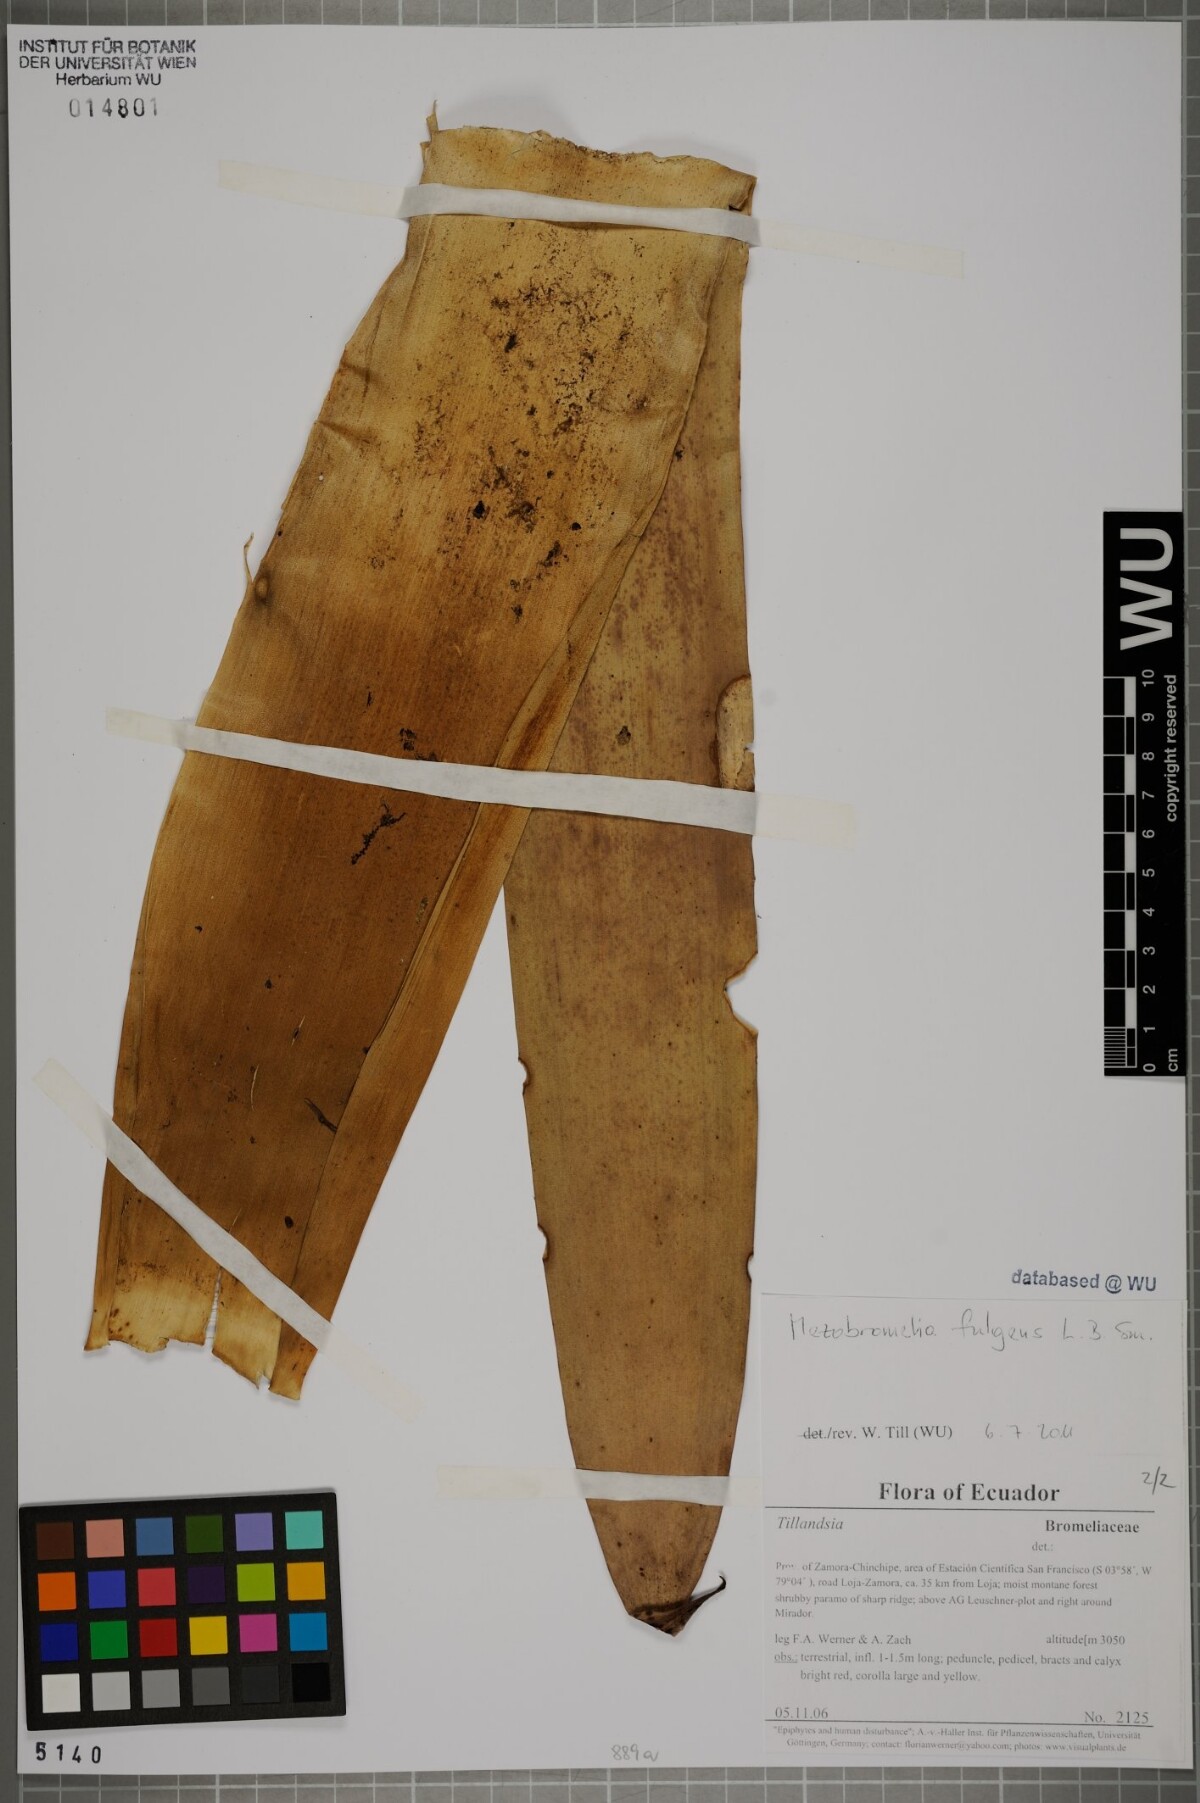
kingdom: Plantae
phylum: Tracheophyta
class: Liliopsida
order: Poales
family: Bromeliaceae
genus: Gregbrownia
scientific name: Gregbrownia fulgens
